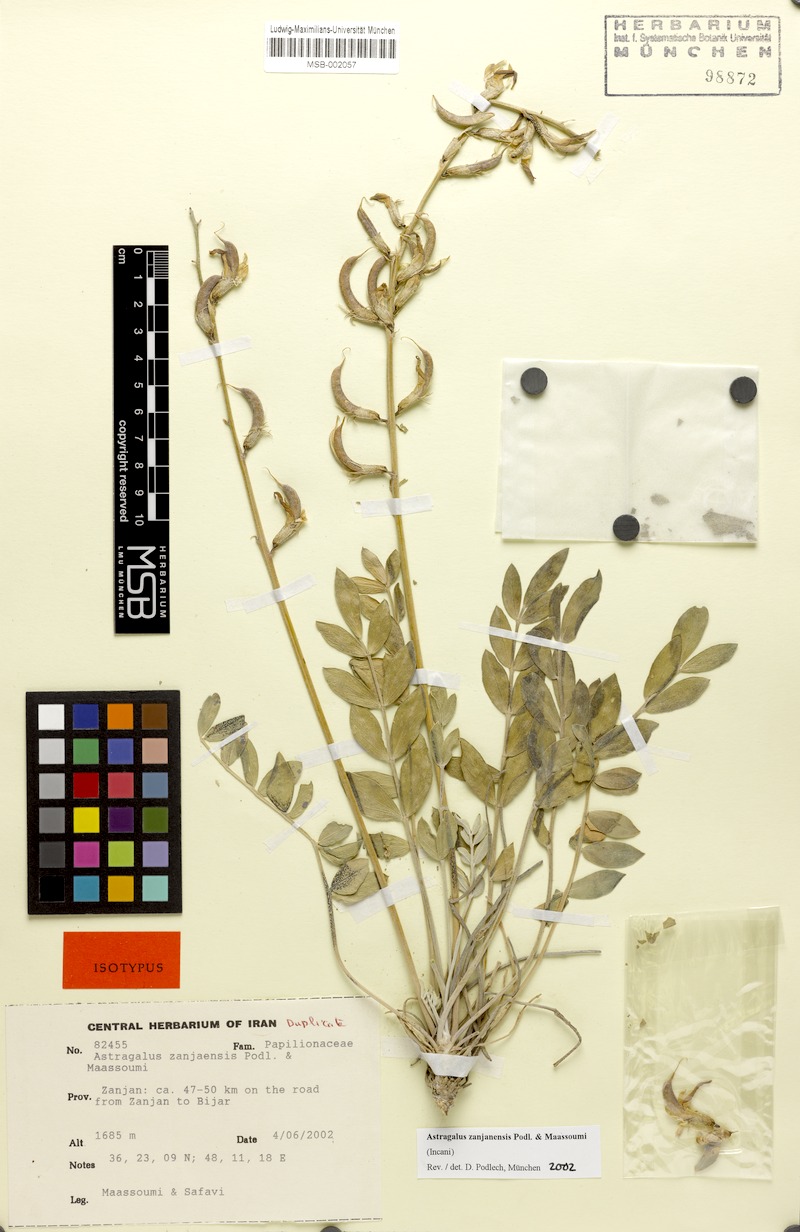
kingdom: Plantae
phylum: Tracheophyta
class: Magnoliopsida
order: Fabales
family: Fabaceae
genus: Astragalus
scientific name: Astragalus zanjanensis
